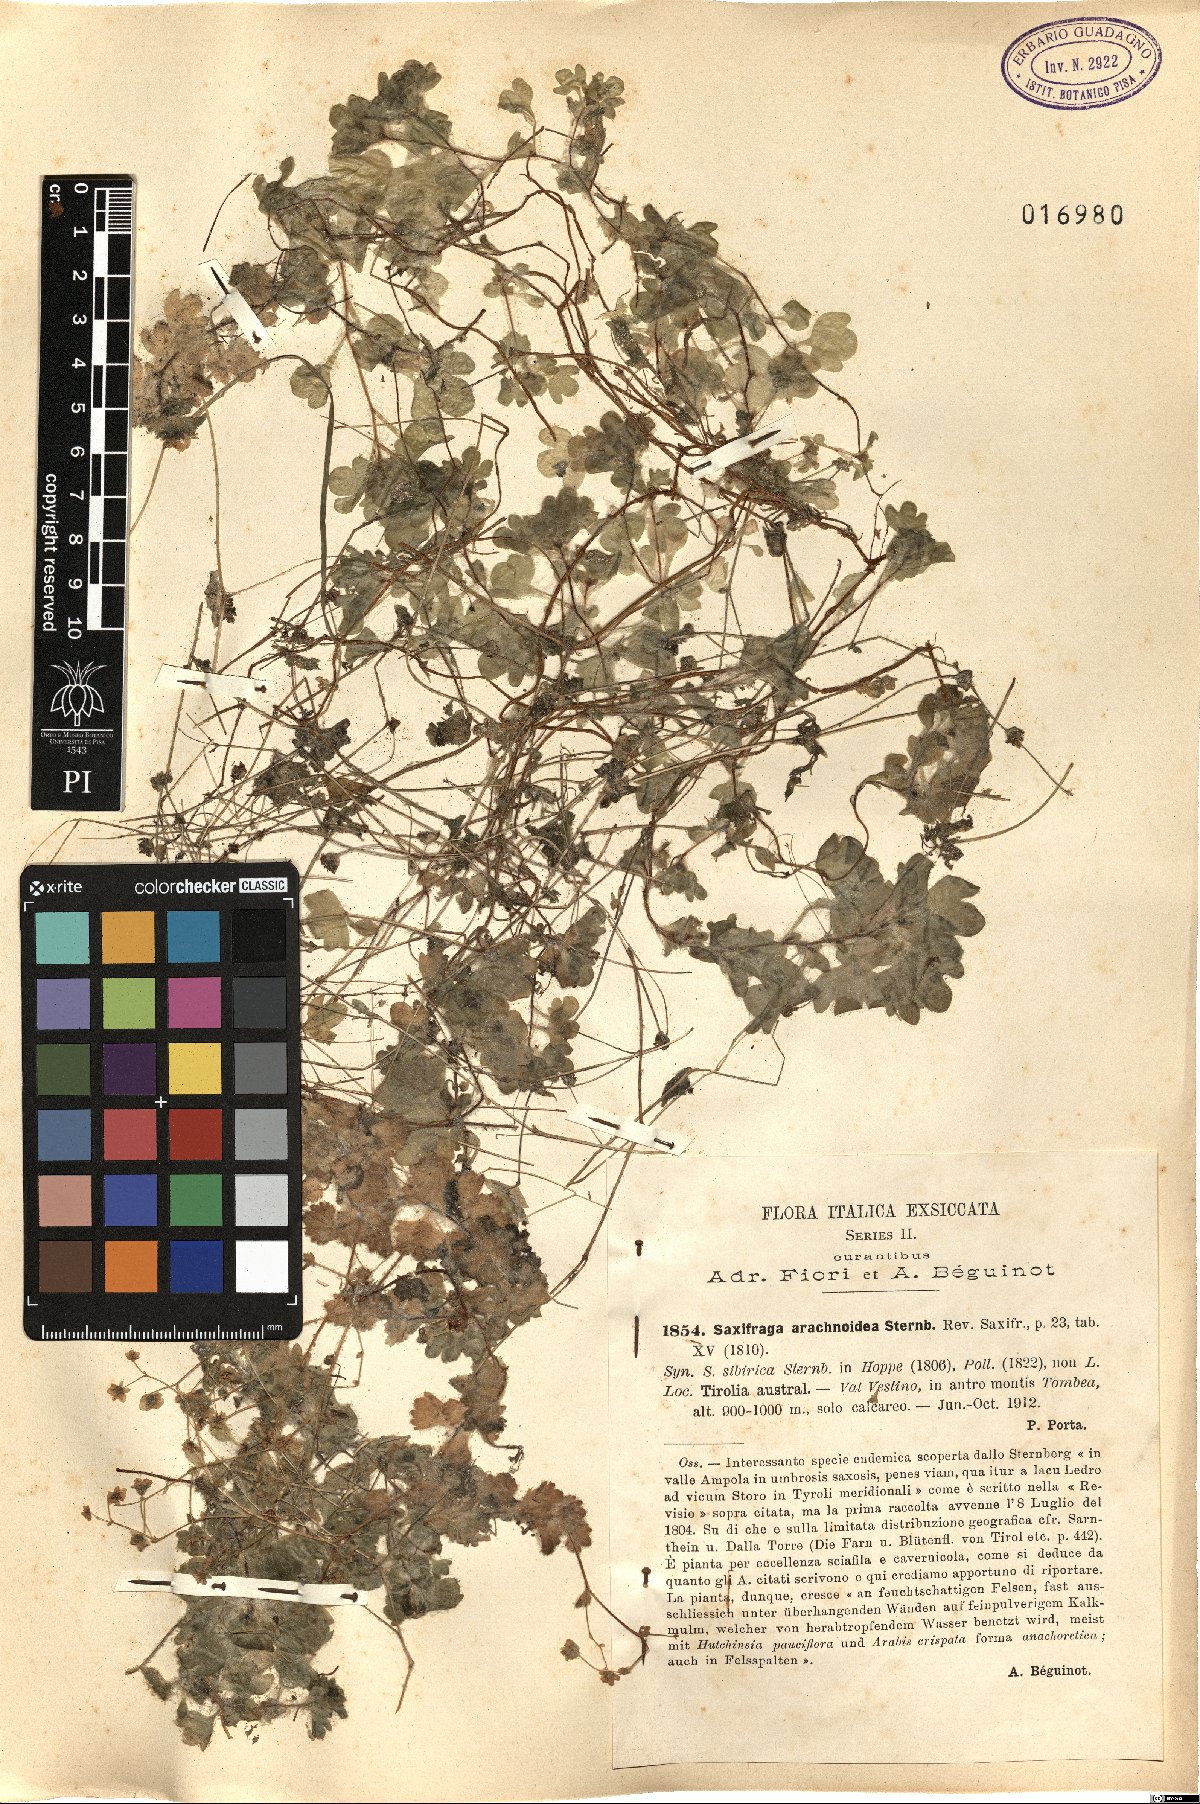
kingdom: Plantae
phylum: Tracheophyta
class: Magnoliopsida
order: Saxifragales
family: Saxifragaceae
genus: Saxifraga
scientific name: Saxifraga arachnoidea
